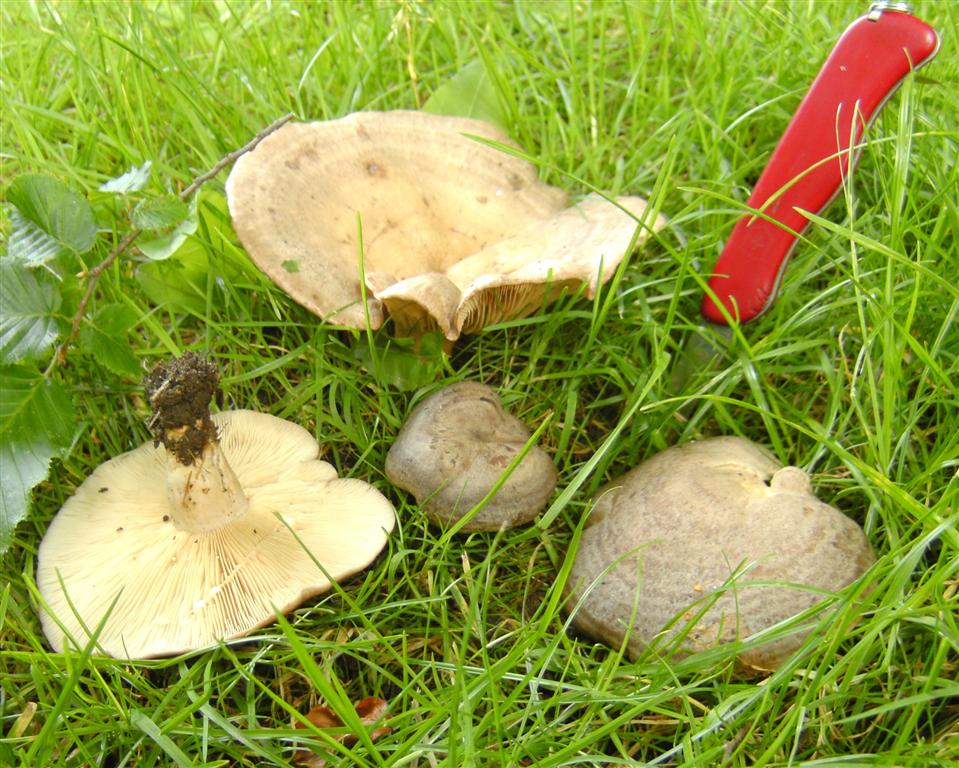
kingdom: Fungi
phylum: Basidiomycota
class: Agaricomycetes
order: Russulales
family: Russulaceae
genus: Lactarius
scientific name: Lactarius circellatus
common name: avnbøg-mælkehat
